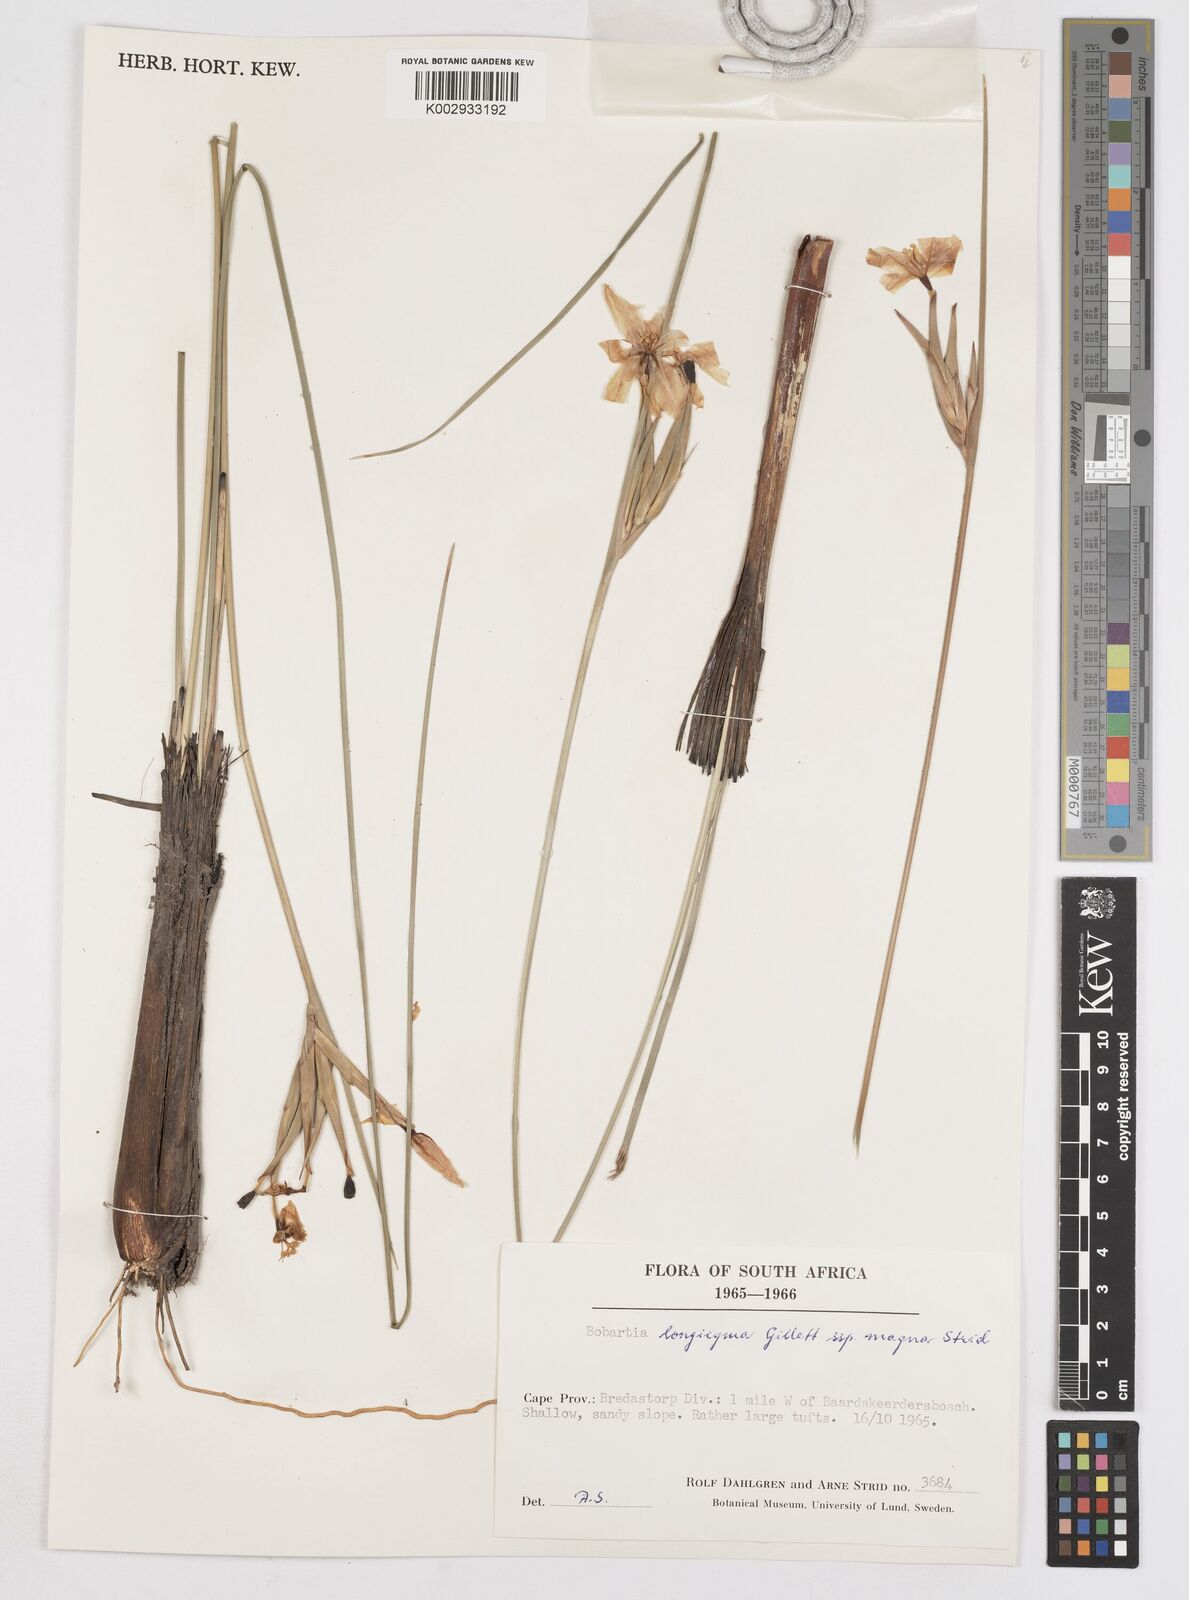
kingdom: Plantae
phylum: Tracheophyta
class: Liliopsida
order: Asparagales
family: Iridaceae
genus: Bobartia
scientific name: Bobartia longicyma
